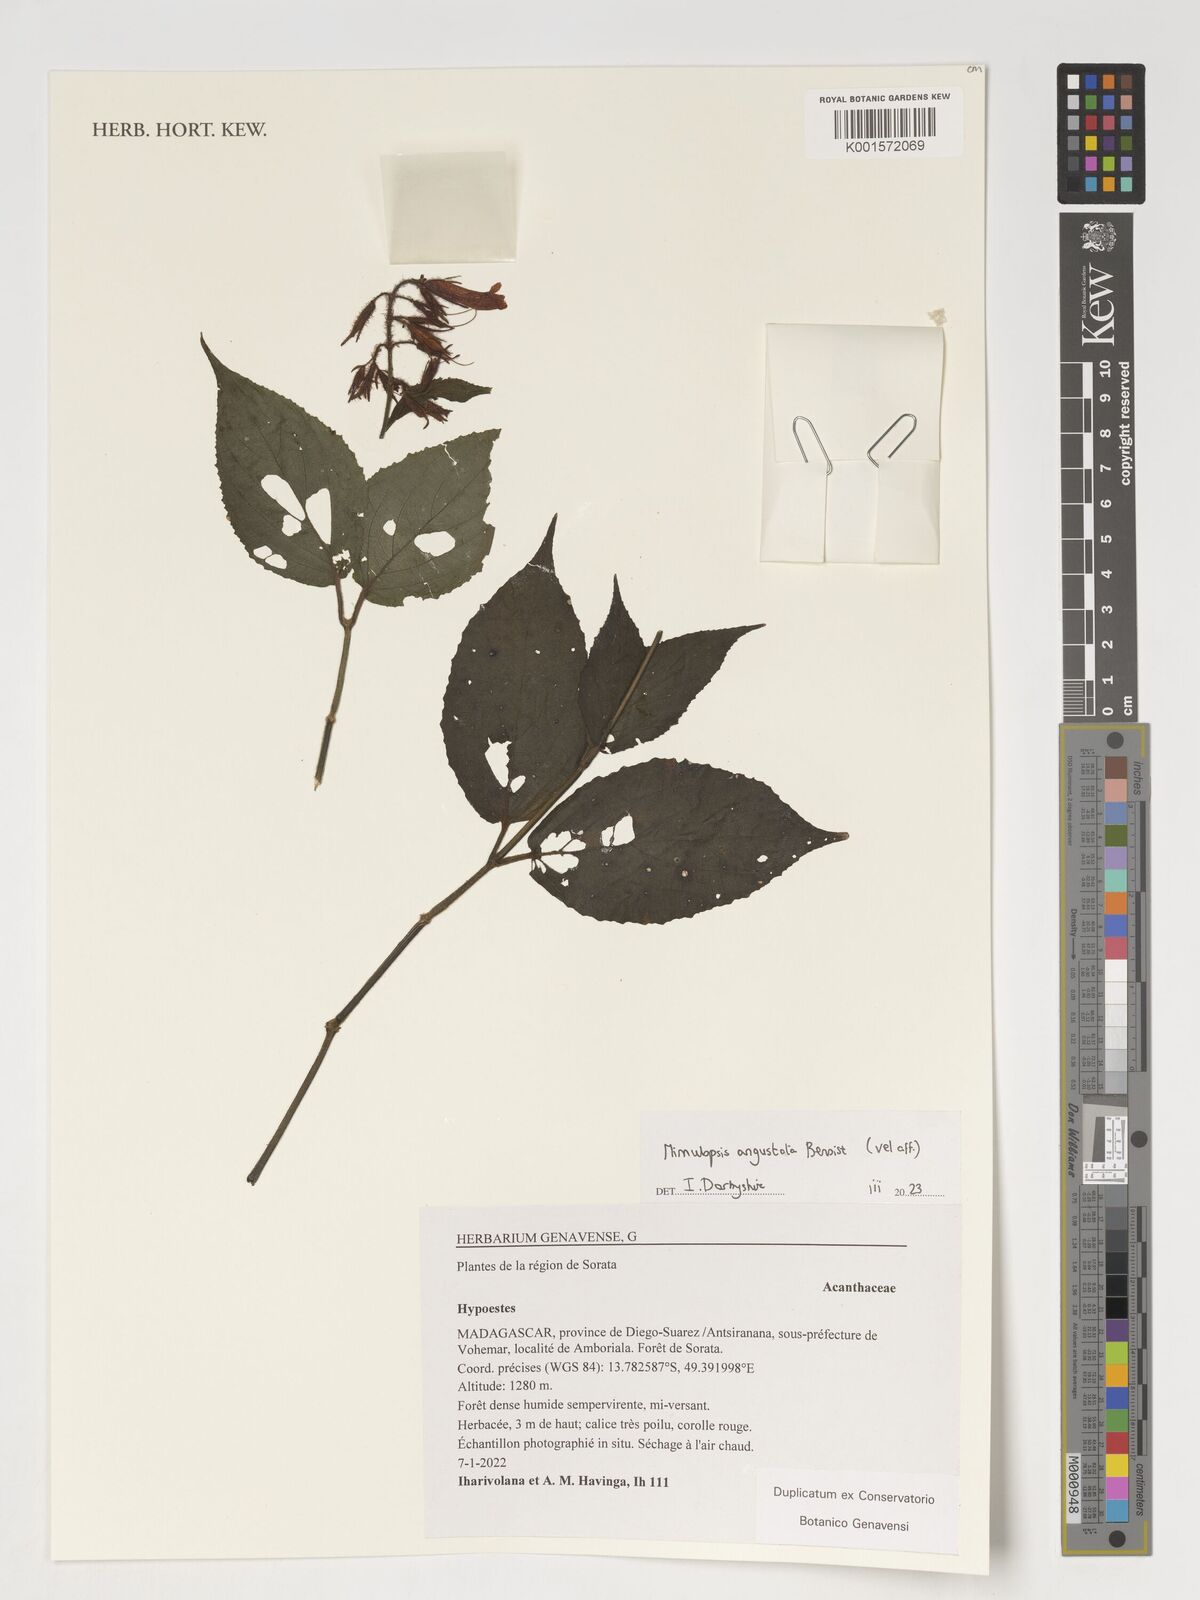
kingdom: Plantae
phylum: Tracheophyta
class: Magnoliopsida
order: Lamiales
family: Acanthaceae
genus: Hypoestes
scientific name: Hypoestes
